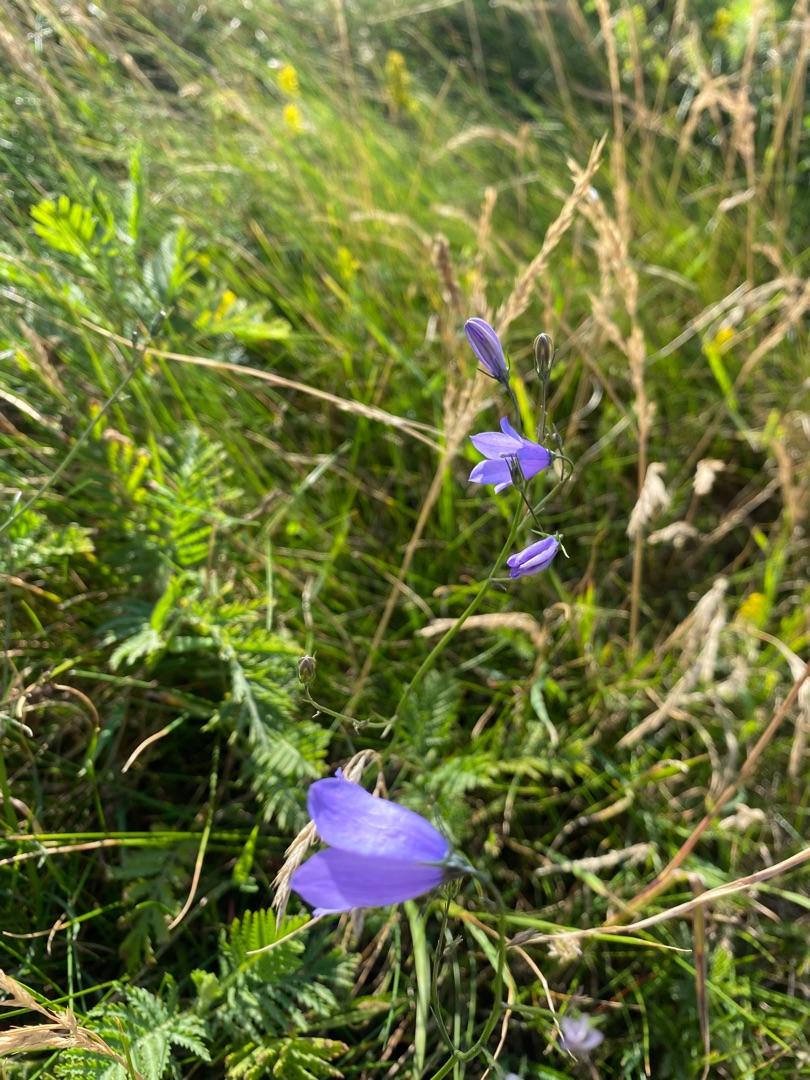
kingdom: Plantae
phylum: Tracheophyta
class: Magnoliopsida
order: Asterales
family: Campanulaceae
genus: Campanula
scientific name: Campanula rotundifolia
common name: Liden klokke
